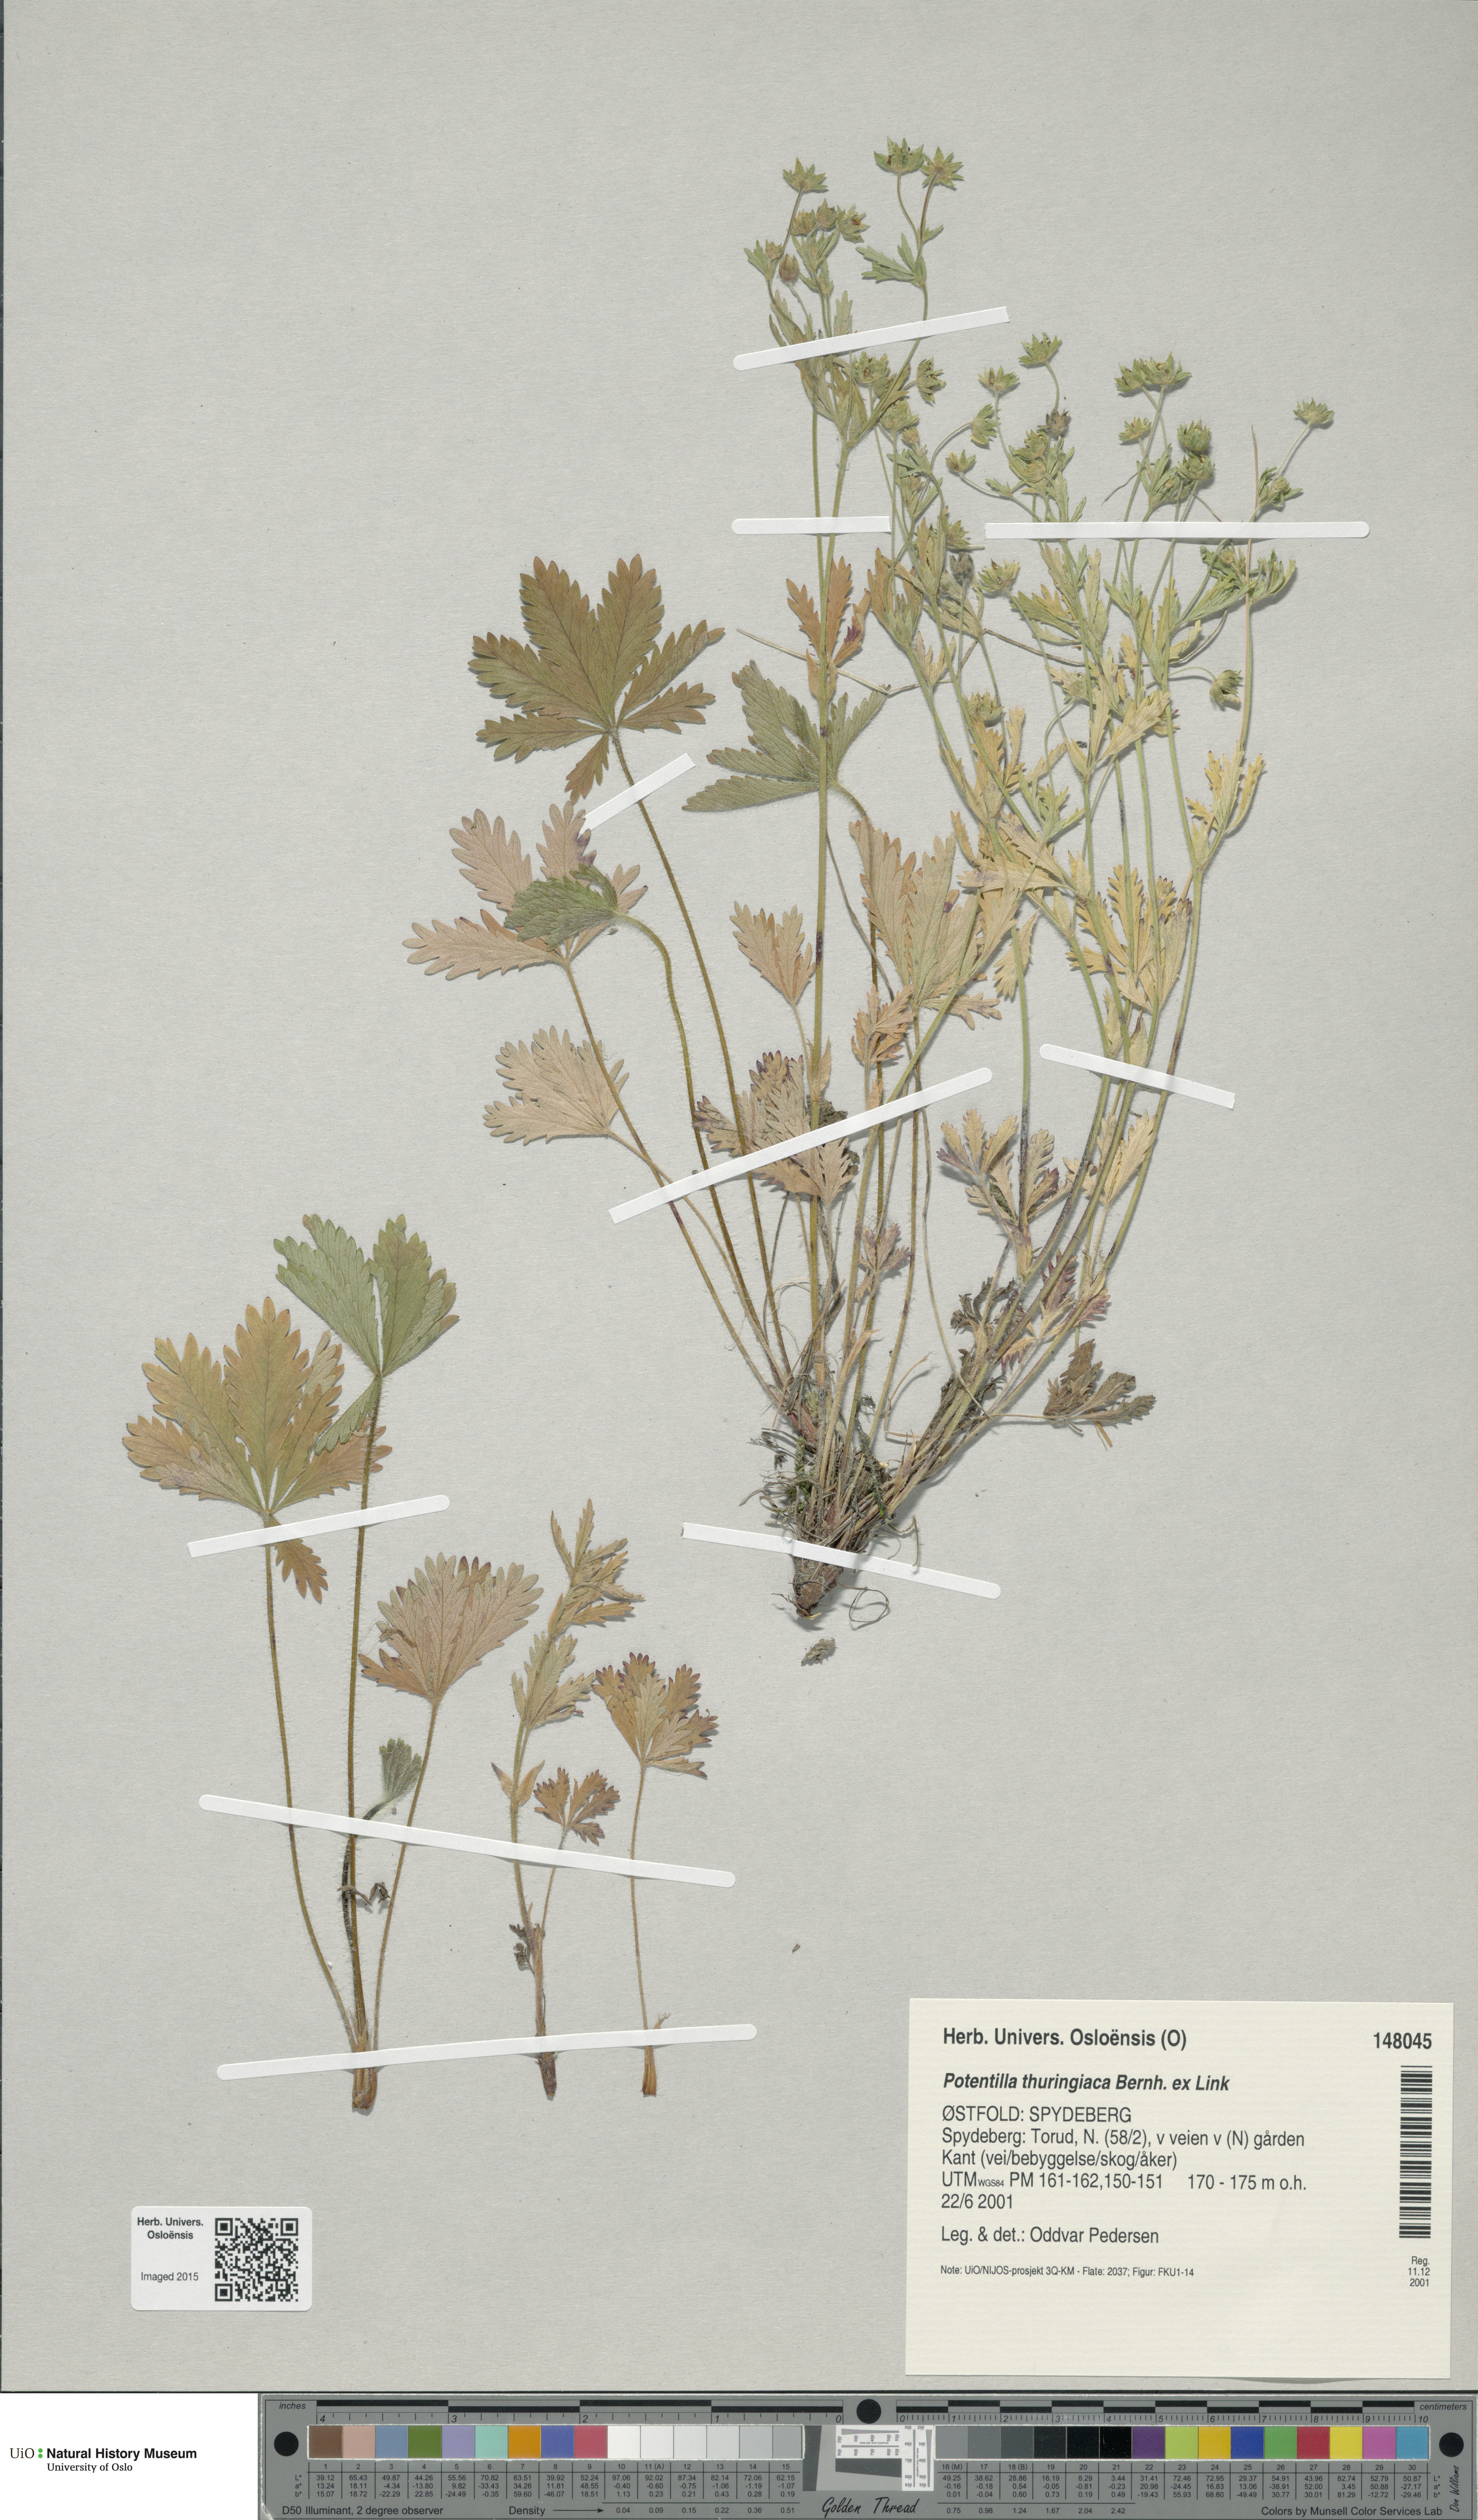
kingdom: Plantae
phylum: Tracheophyta
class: Magnoliopsida
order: Rosales
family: Rosaceae
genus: Potentilla
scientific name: Potentilla thuringiaca
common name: European cinquefoil
